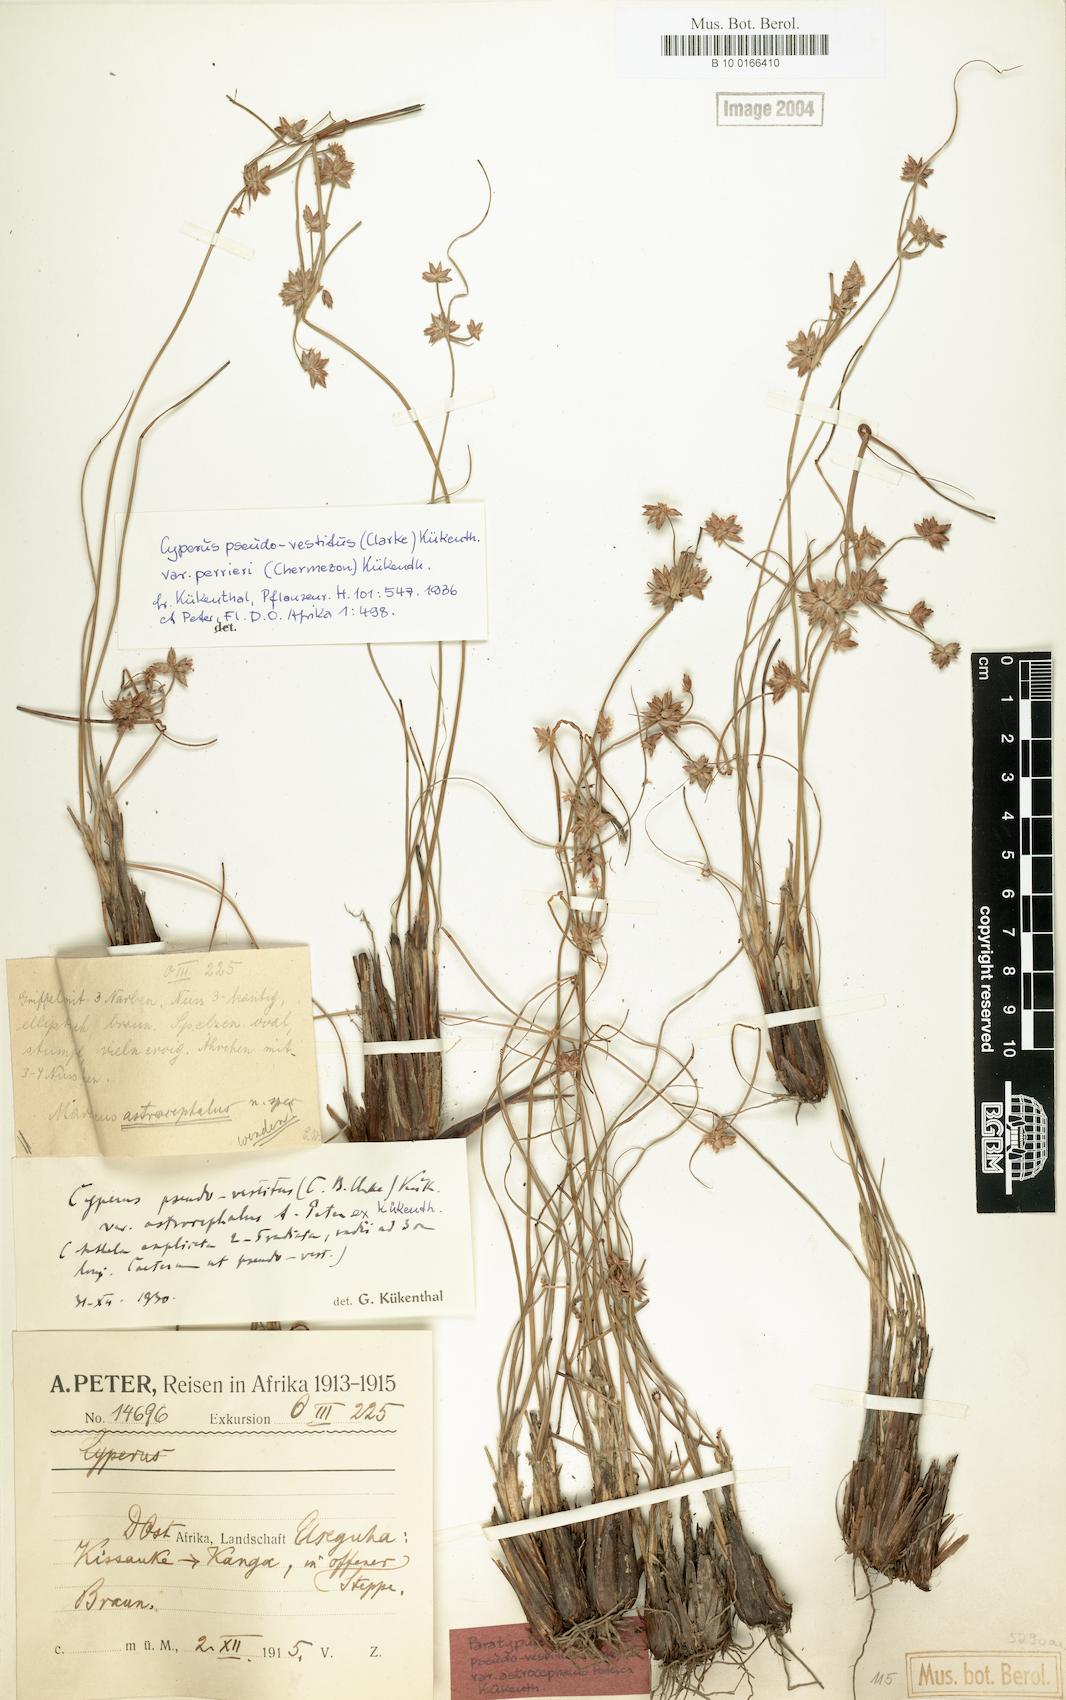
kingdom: Plantae
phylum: Tracheophyta
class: Liliopsida
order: Poales
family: Cyperaceae
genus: Cyperus
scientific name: Cyperus perrieri
